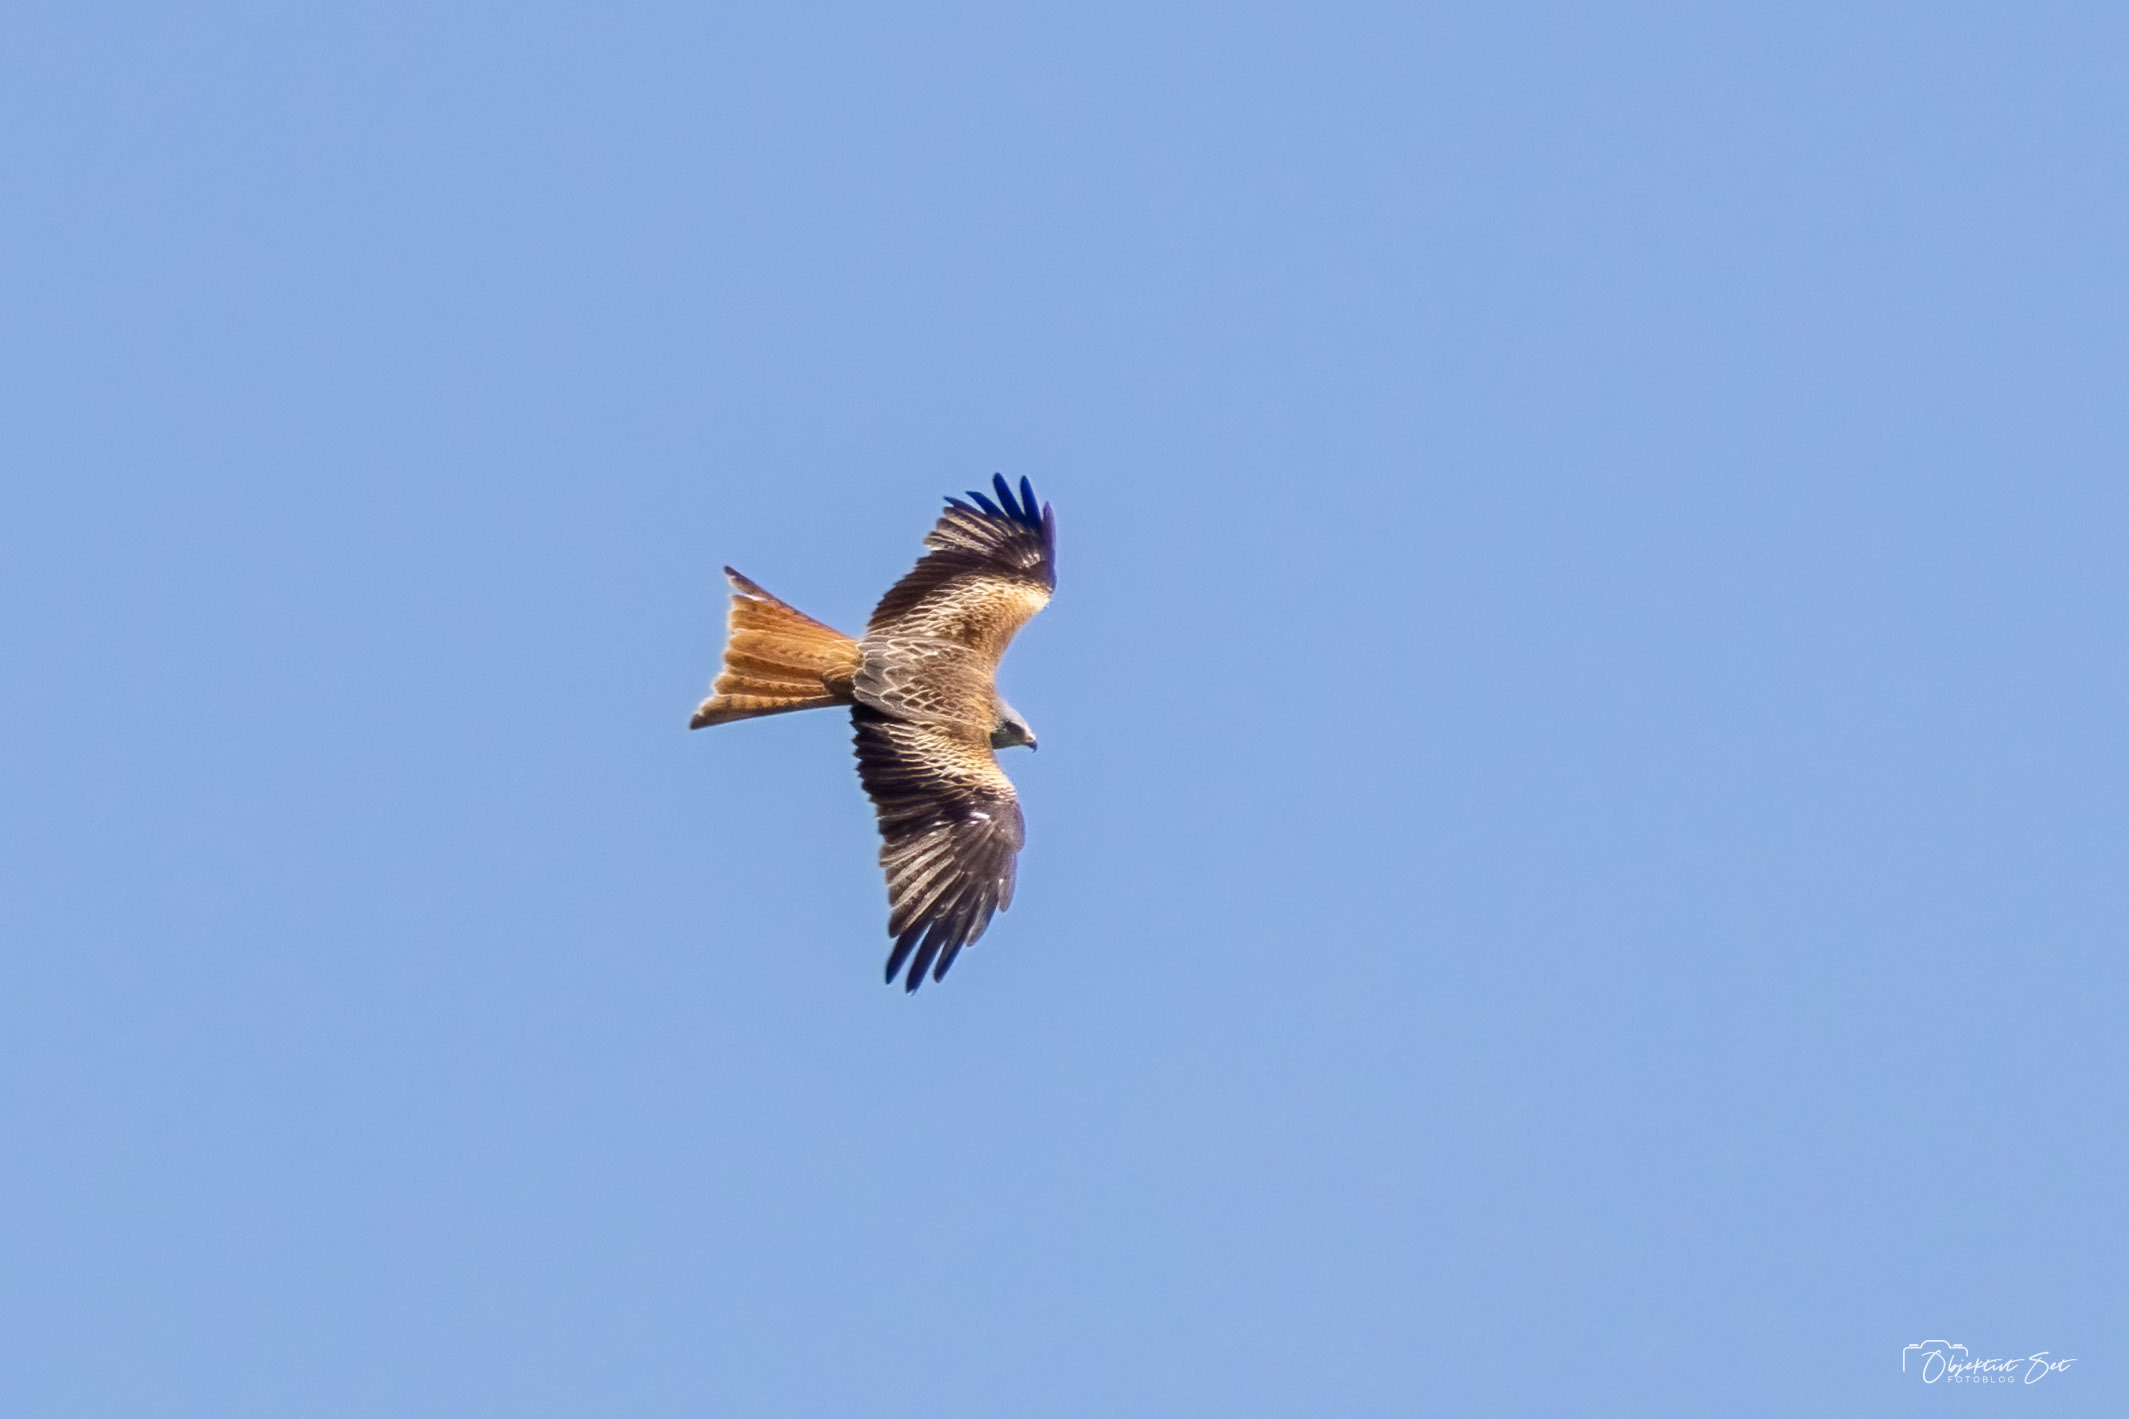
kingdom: Animalia
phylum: Chordata
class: Aves
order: Accipitriformes
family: Accipitridae
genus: Milvus
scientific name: Milvus milvus
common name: Rød glente
